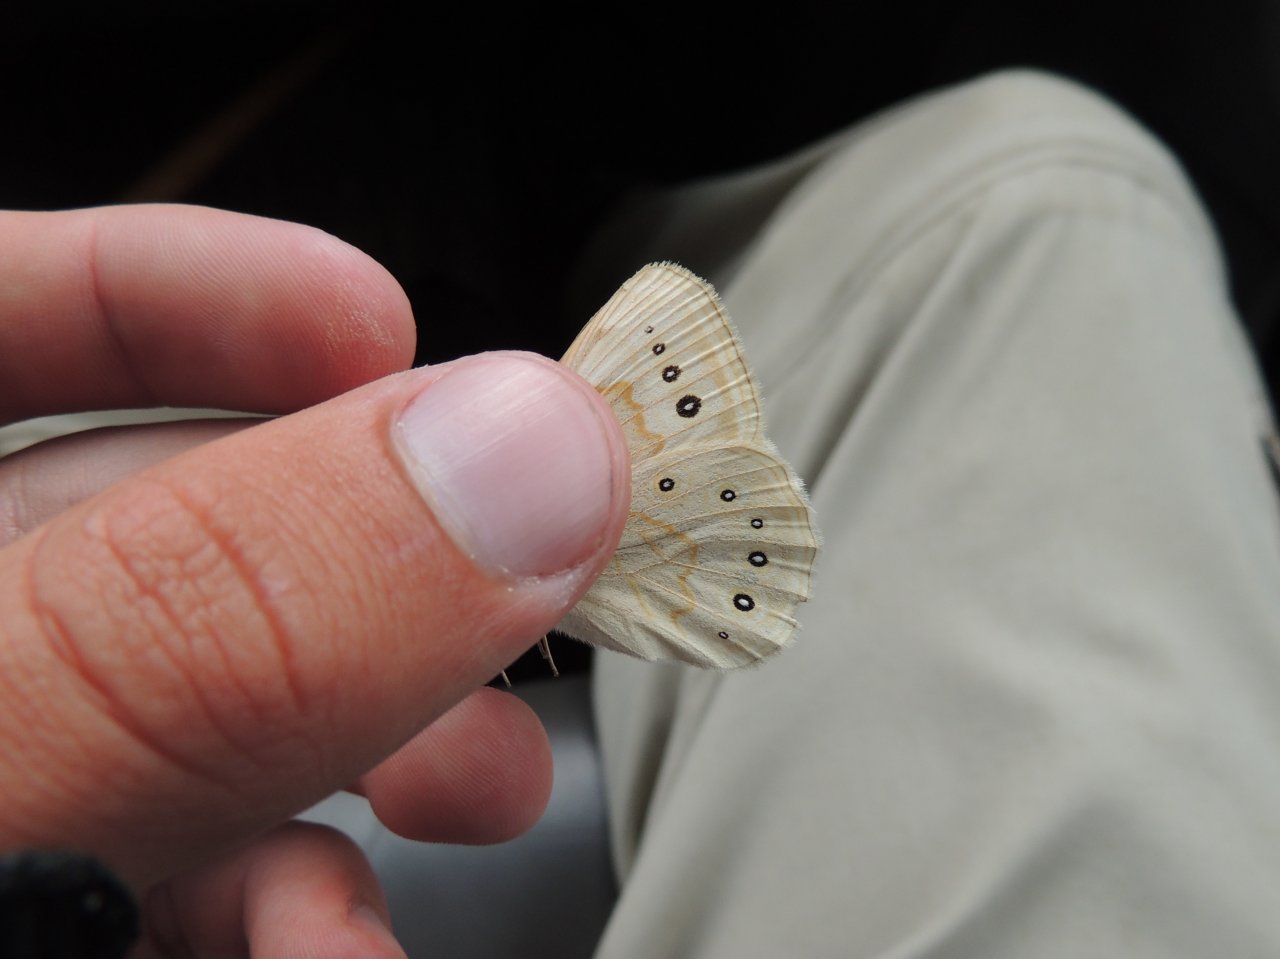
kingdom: Animalia
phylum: Arthropoda
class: Insecta
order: Lepidoptera
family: Nymphalidae
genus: Lethe
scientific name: Lethe eurydice
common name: Eyed Brown
